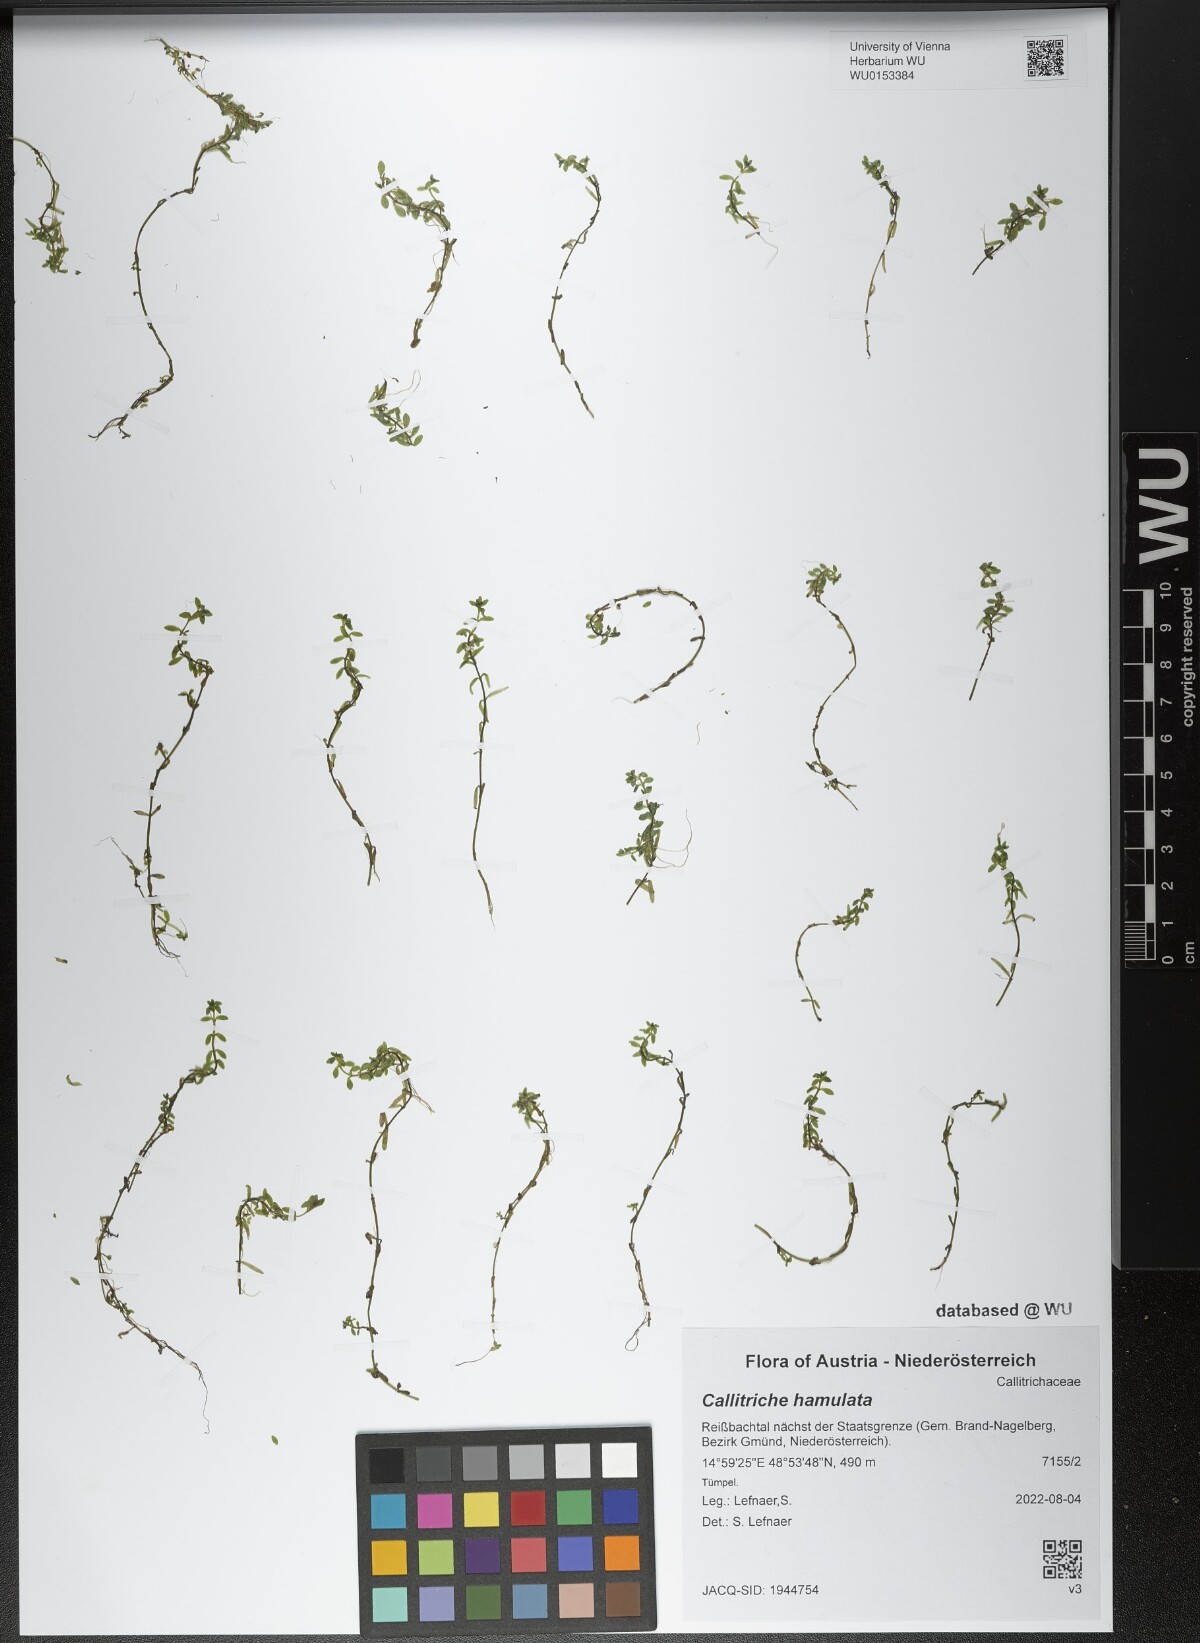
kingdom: Plantae
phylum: Tracheophyta
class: Magnoliopsida
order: Lamiales
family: Plantaginaceae
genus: Callitriche
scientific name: Callitriche hamulata
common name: Intermediate water-starwort
